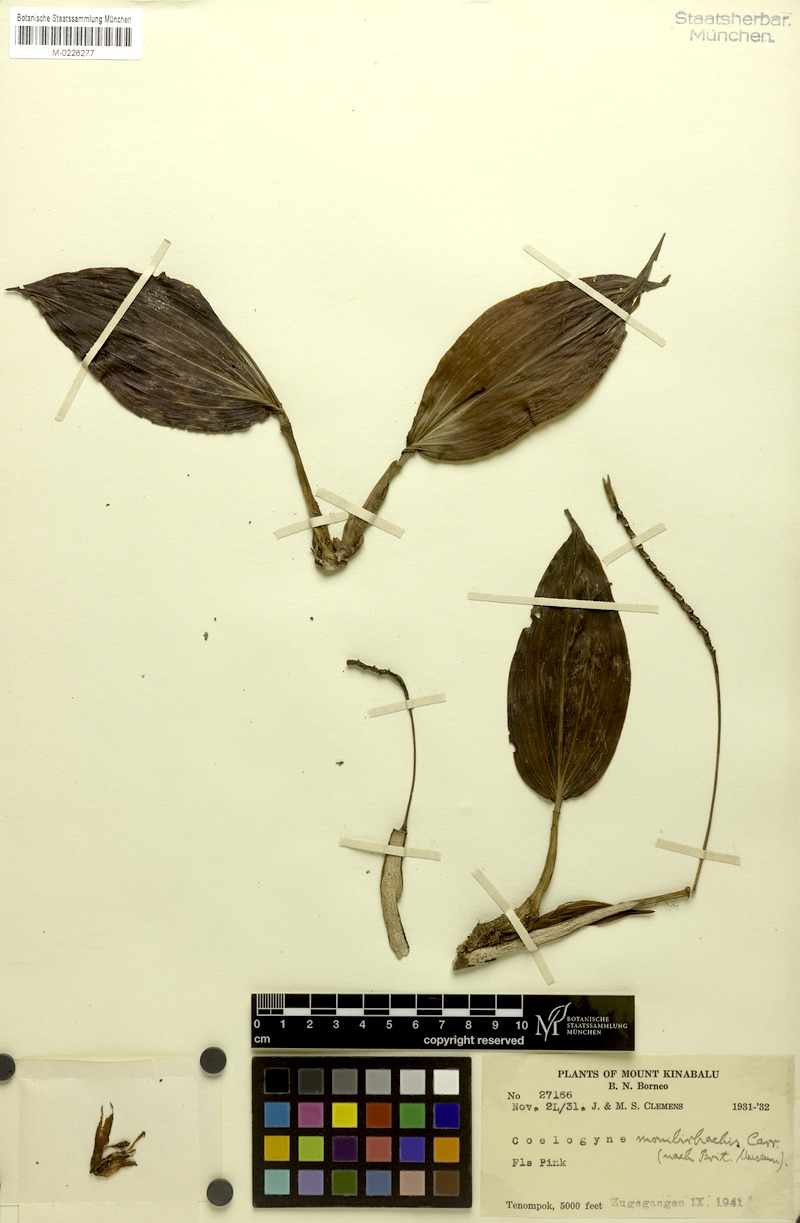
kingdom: Plantae
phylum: Tracheophyta
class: Liliopsida
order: Asparagales
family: Orchidaceae
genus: Coelogyne
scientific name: Coelogyne monilirachis
